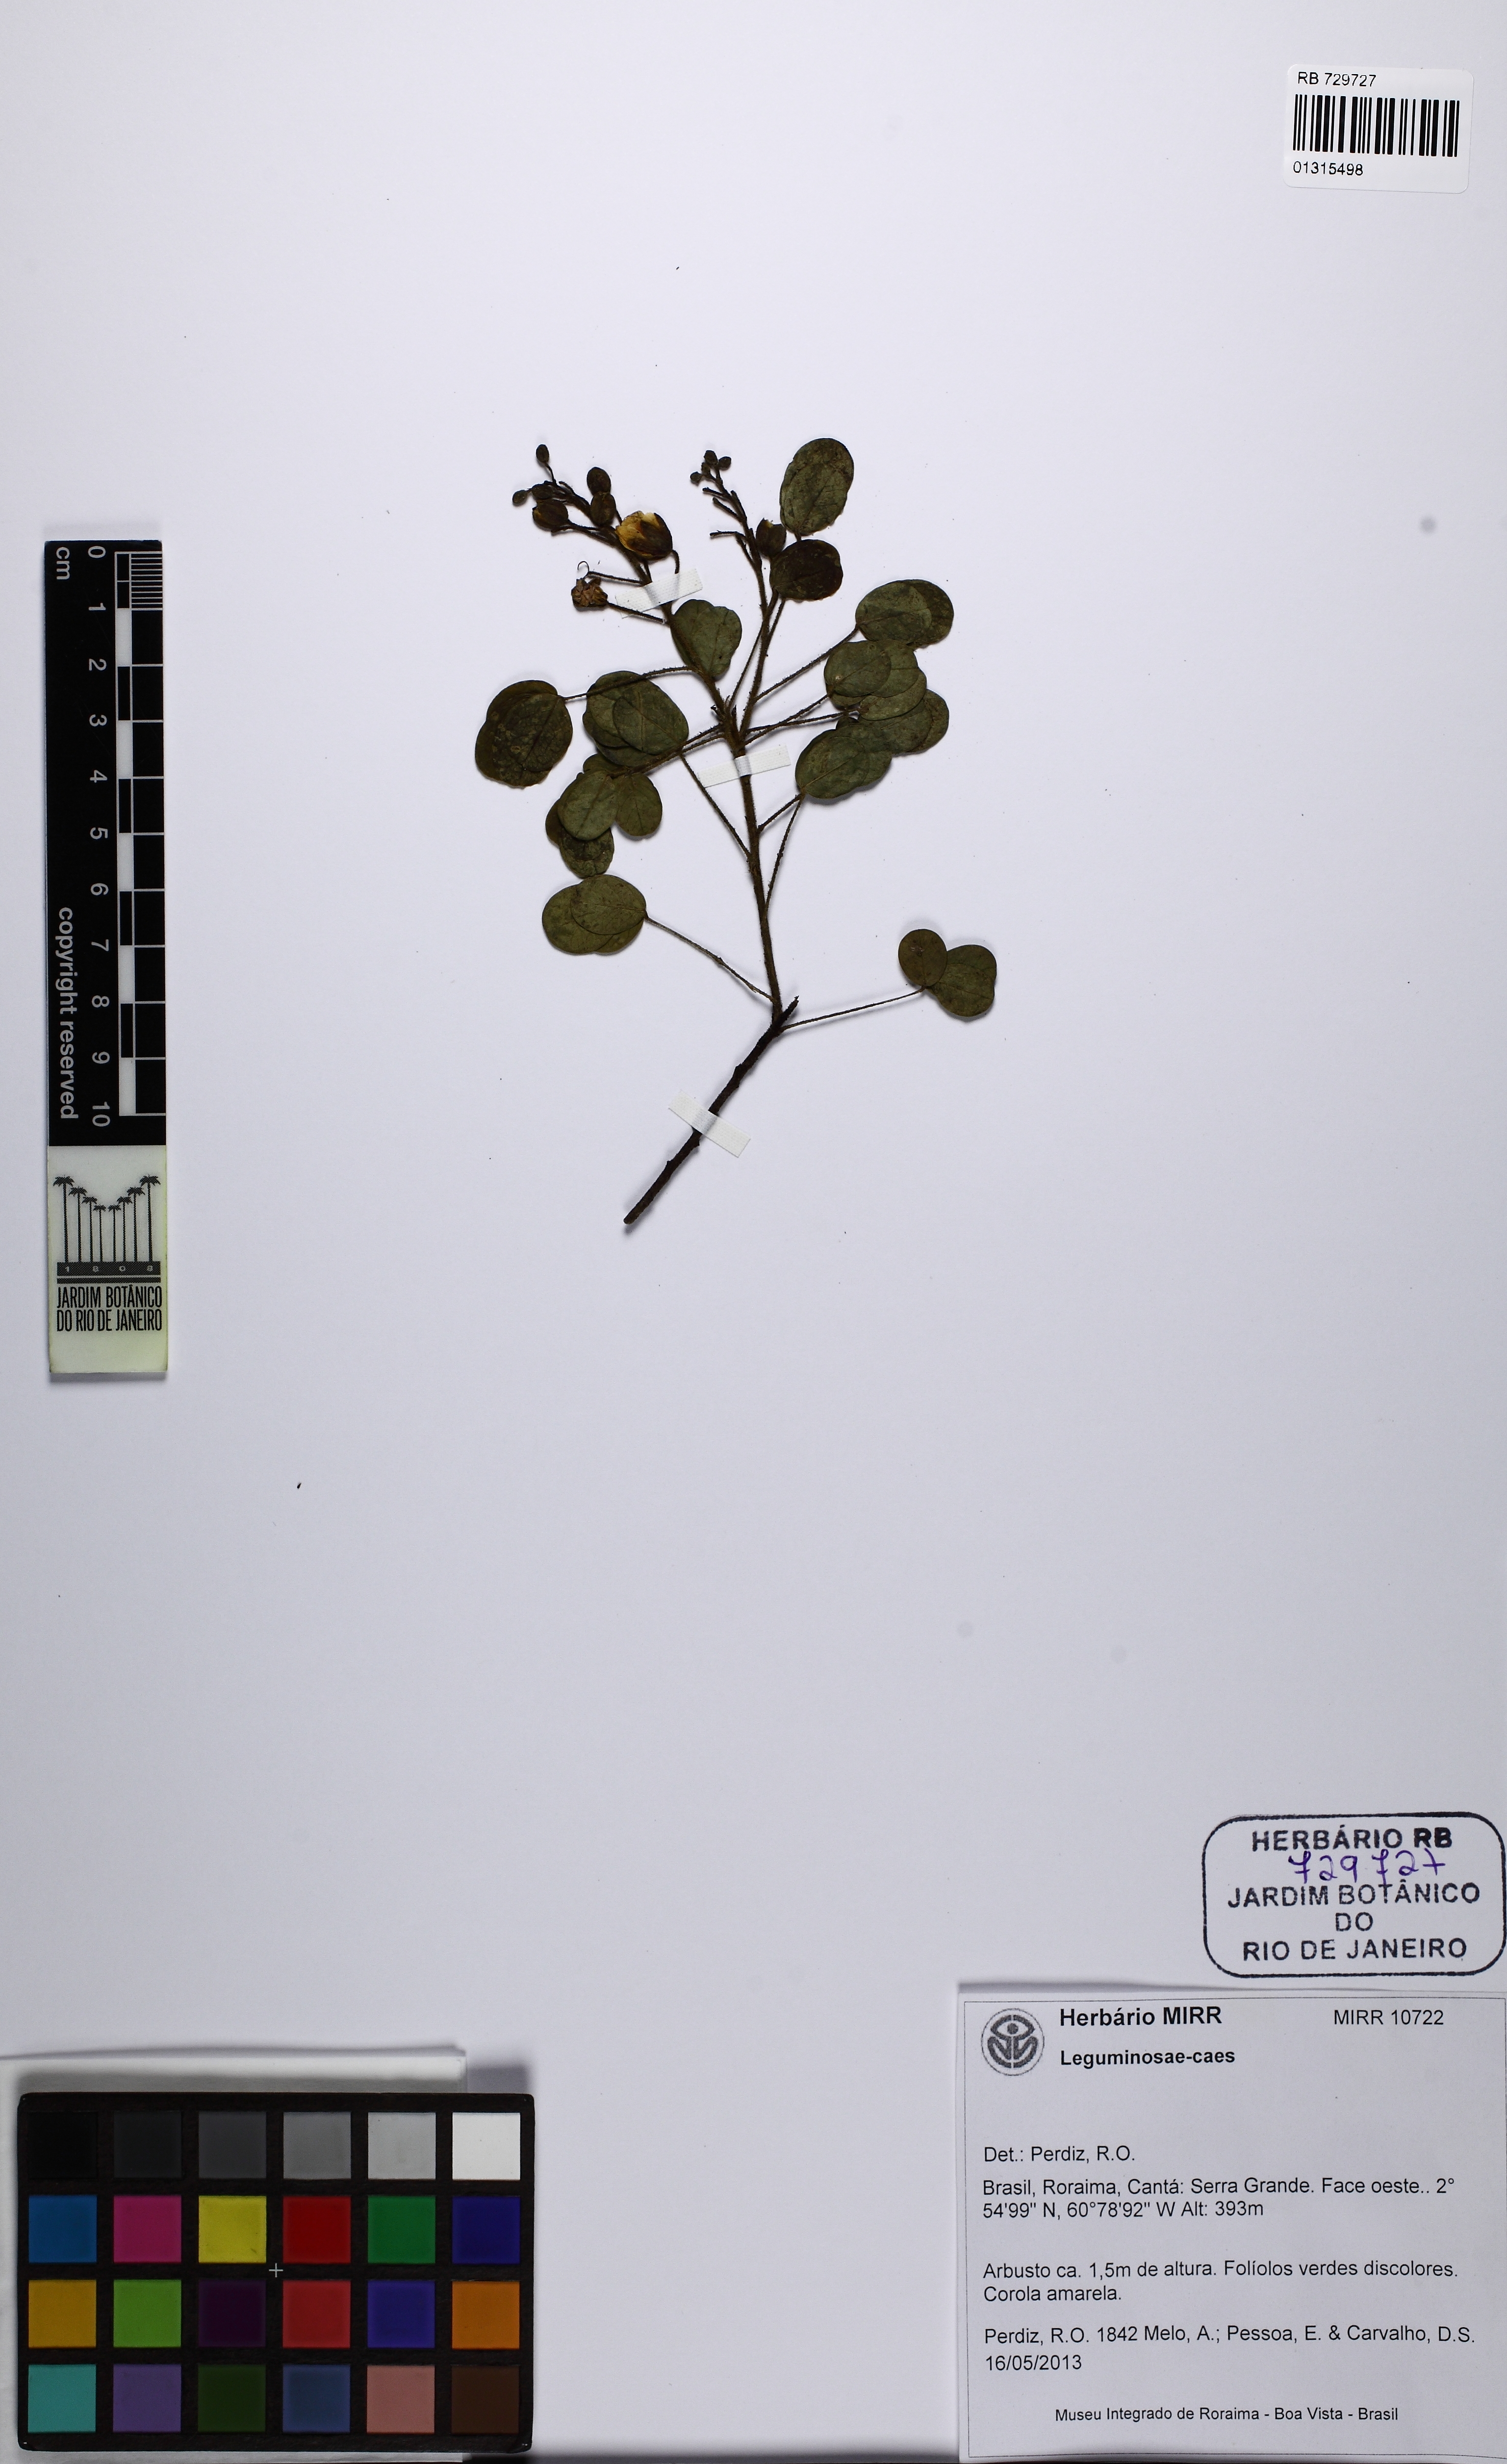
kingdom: Plantae
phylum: Tracheophyta
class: Magnoliopsida
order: Fabales
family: Fabaceae
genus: Chamaecrista
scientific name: Chamaecrista
